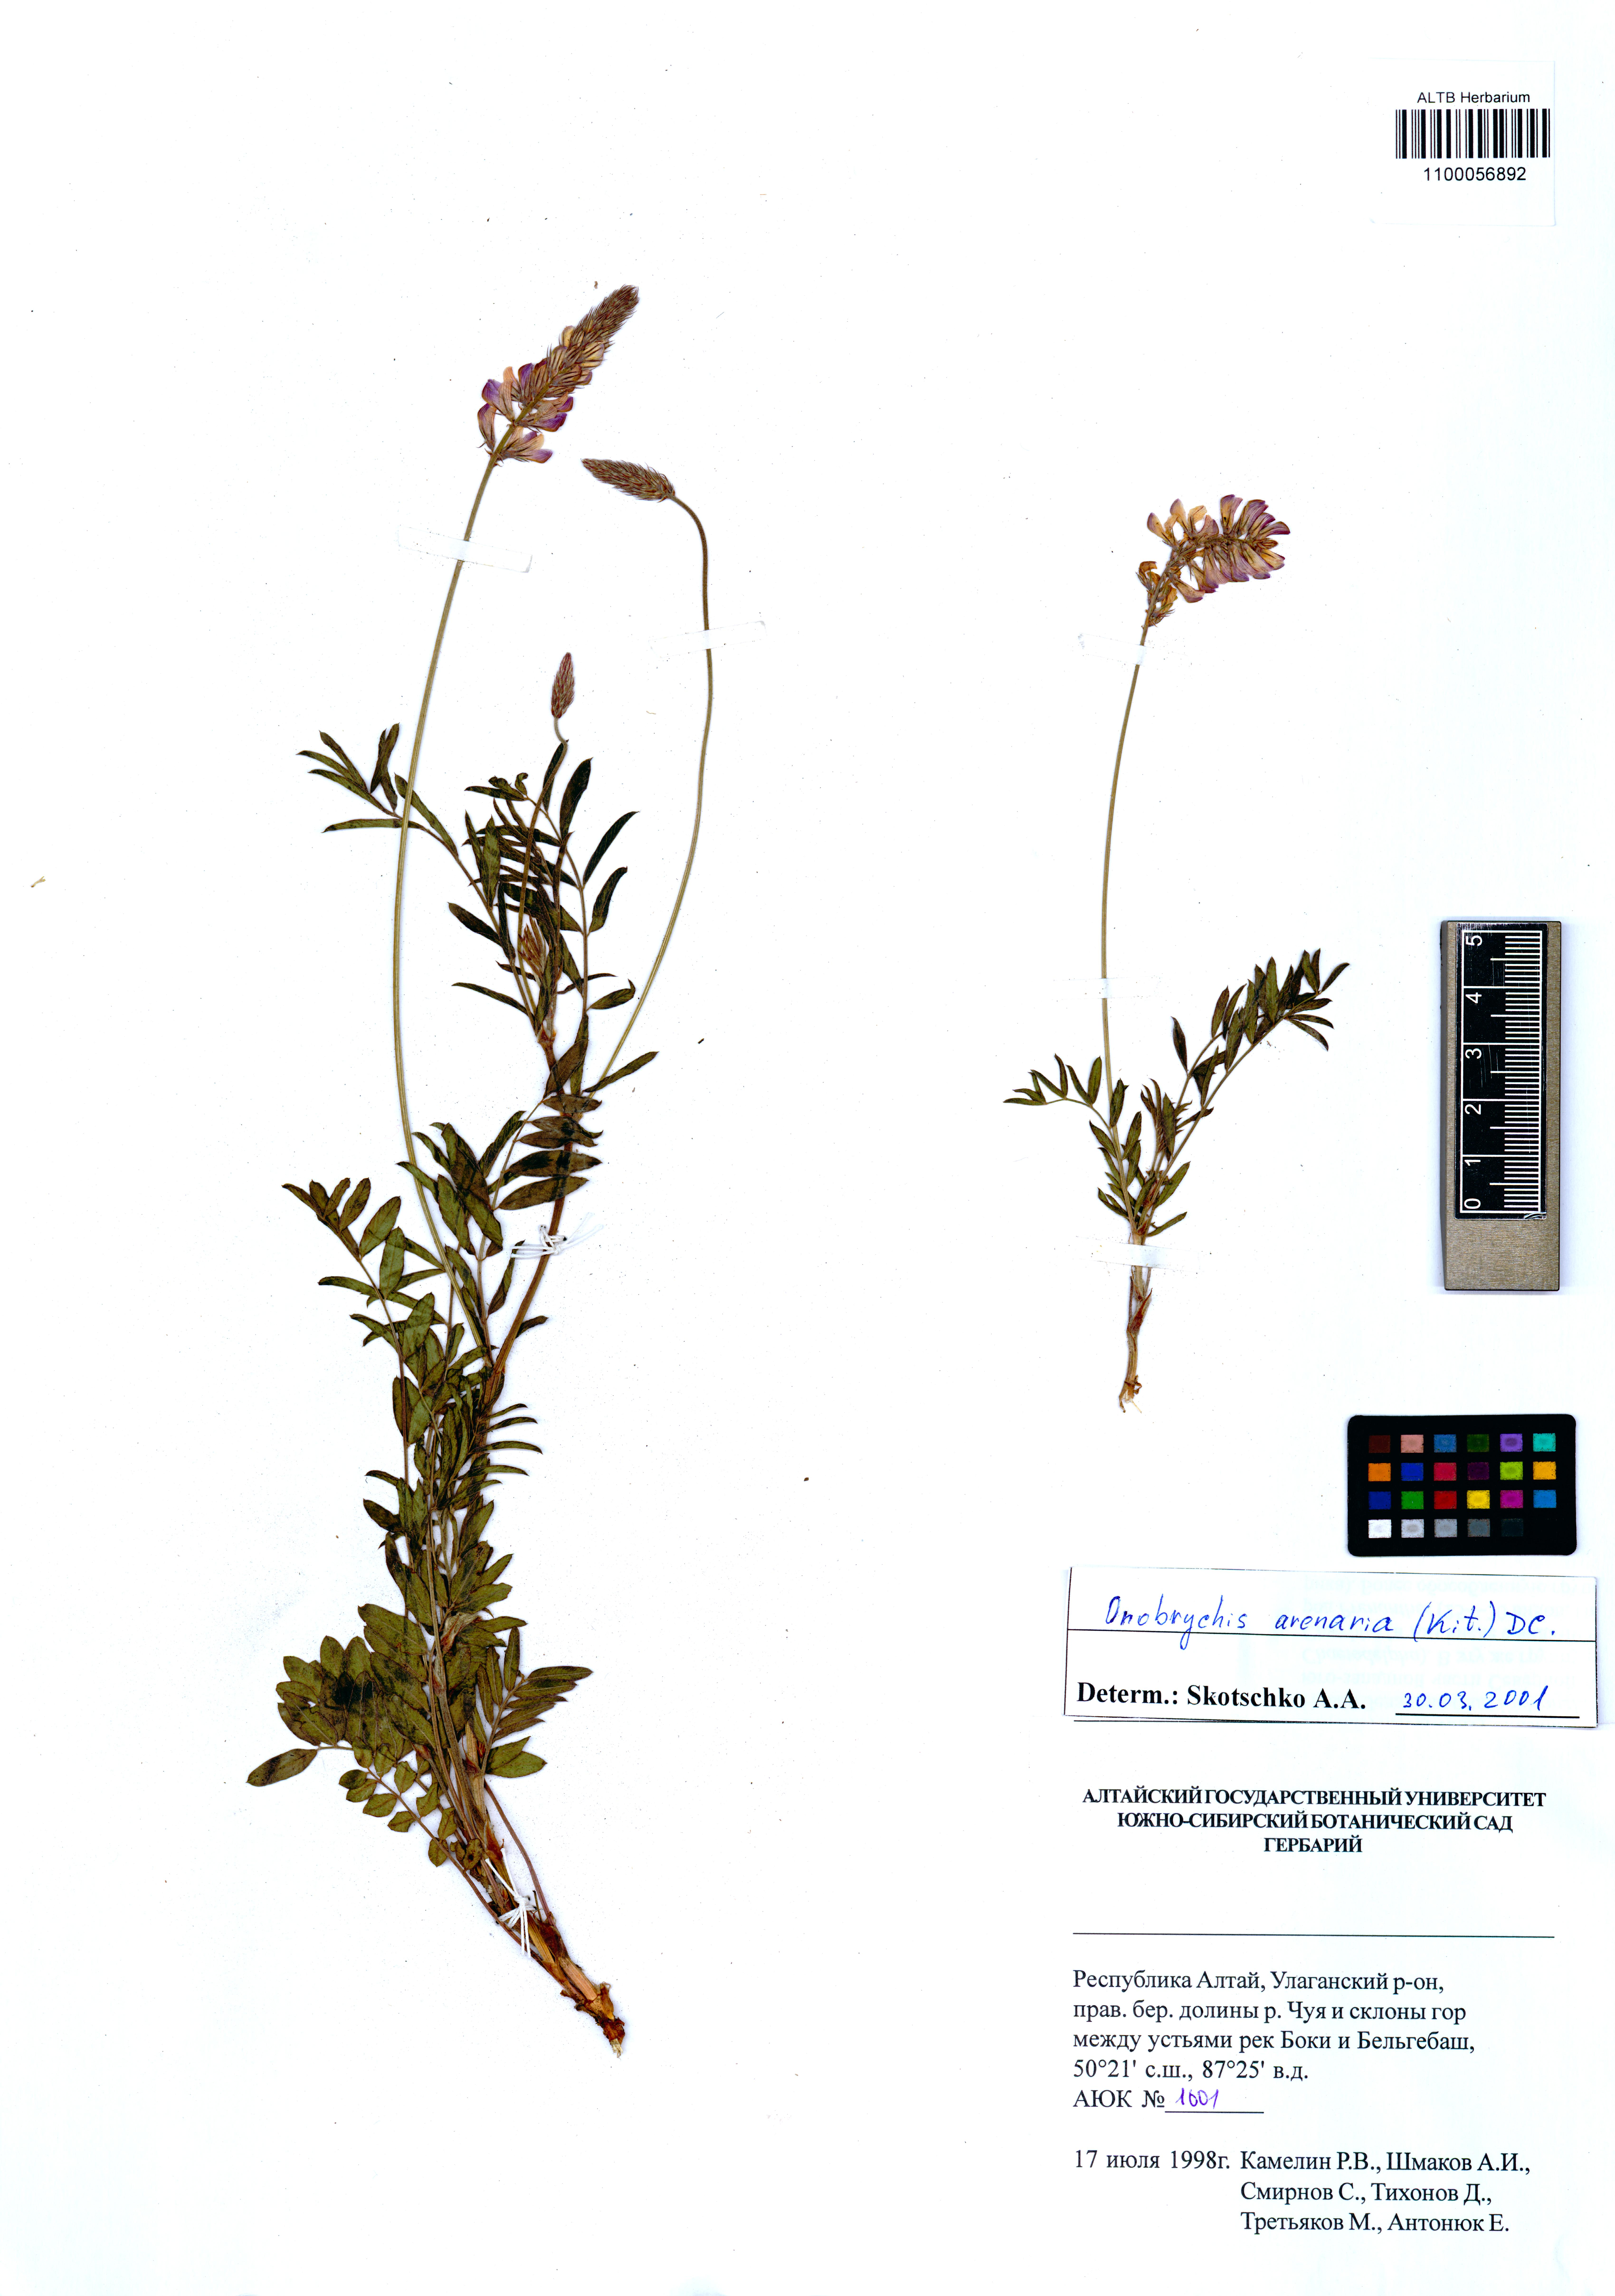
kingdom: Plantae
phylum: Tracheophyta
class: Magnoliopsida
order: Fabales
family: Fabaceae
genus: Onobrychis
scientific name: Onobrychis arenaria
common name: Sand esparcet
